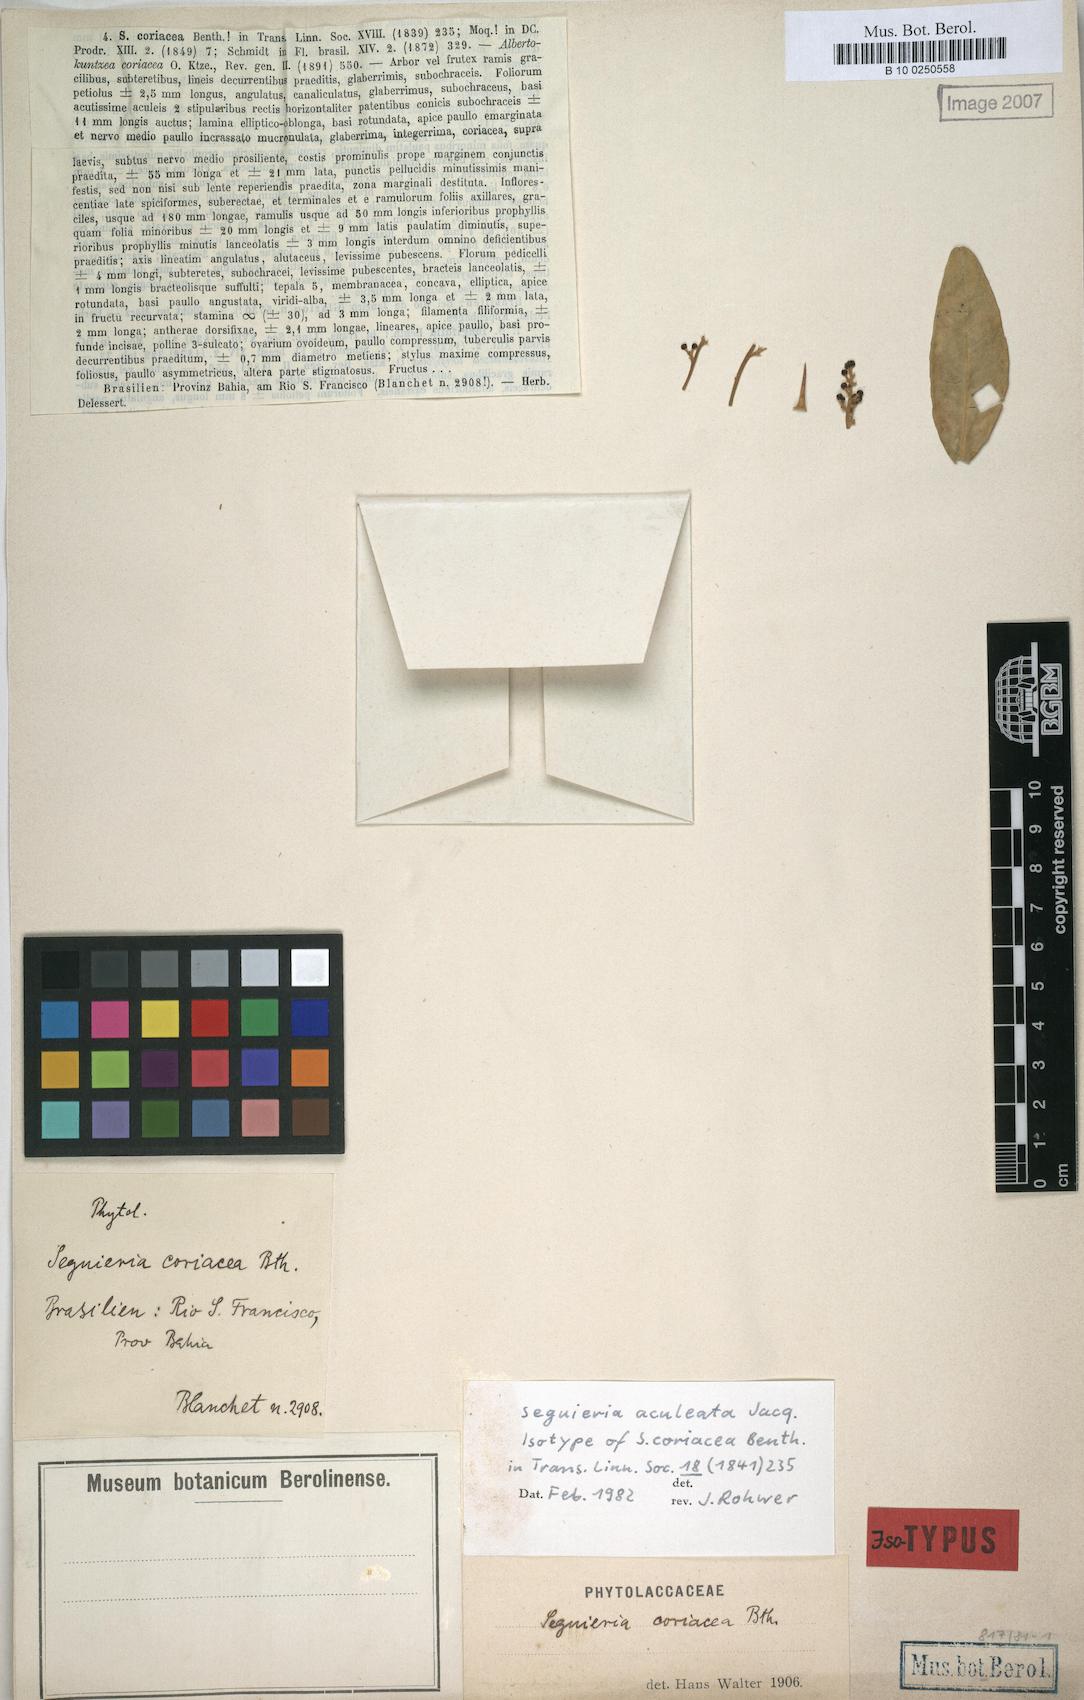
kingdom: Plantae
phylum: Tracheophyta
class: Magnoliopsida
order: Caryophyllales
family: Phytolaccaceae
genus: Seguieria
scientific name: Seguieria aculeata
